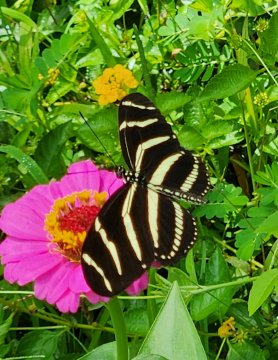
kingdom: Animalia
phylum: Arthropoda
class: Insecta
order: Lepidoptera
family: Nymphalidae
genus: Heliconius
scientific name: Heliconius charithonia
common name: Zebra Longwing
